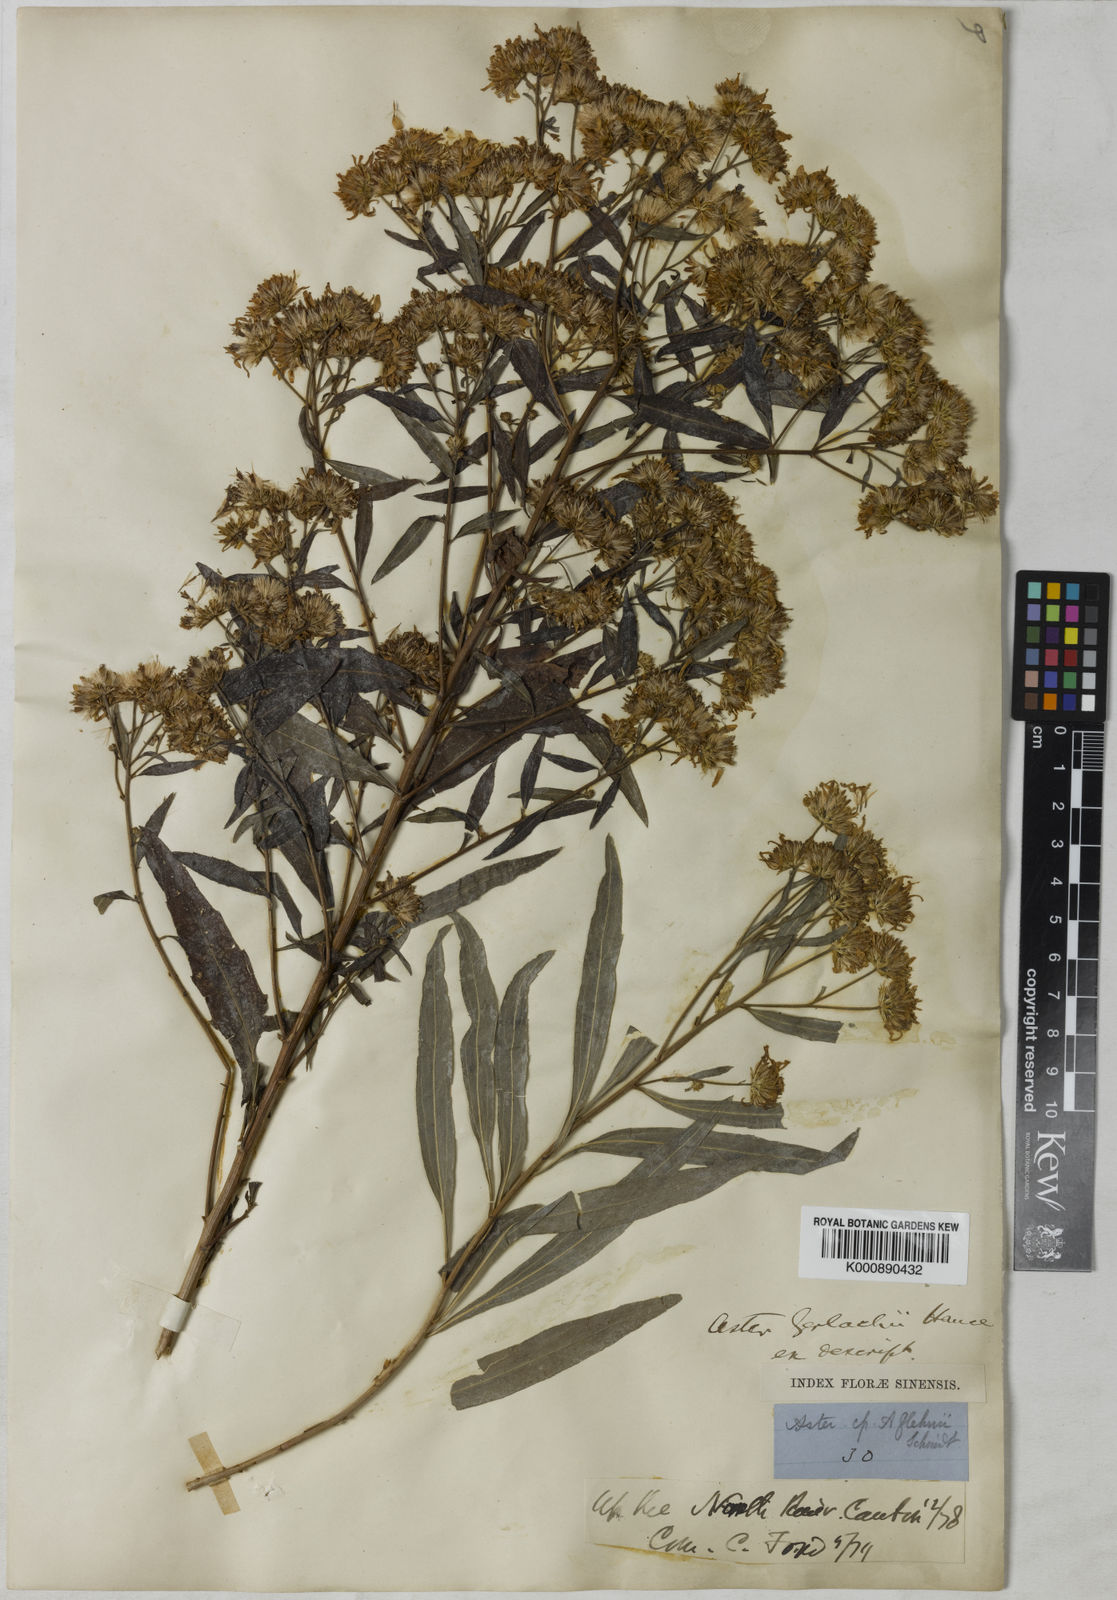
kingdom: Plantae
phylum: Tracheophyta
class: Magnoliopsida
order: Asterales
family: Asteraceae
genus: Aster
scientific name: Aster ageratoides
